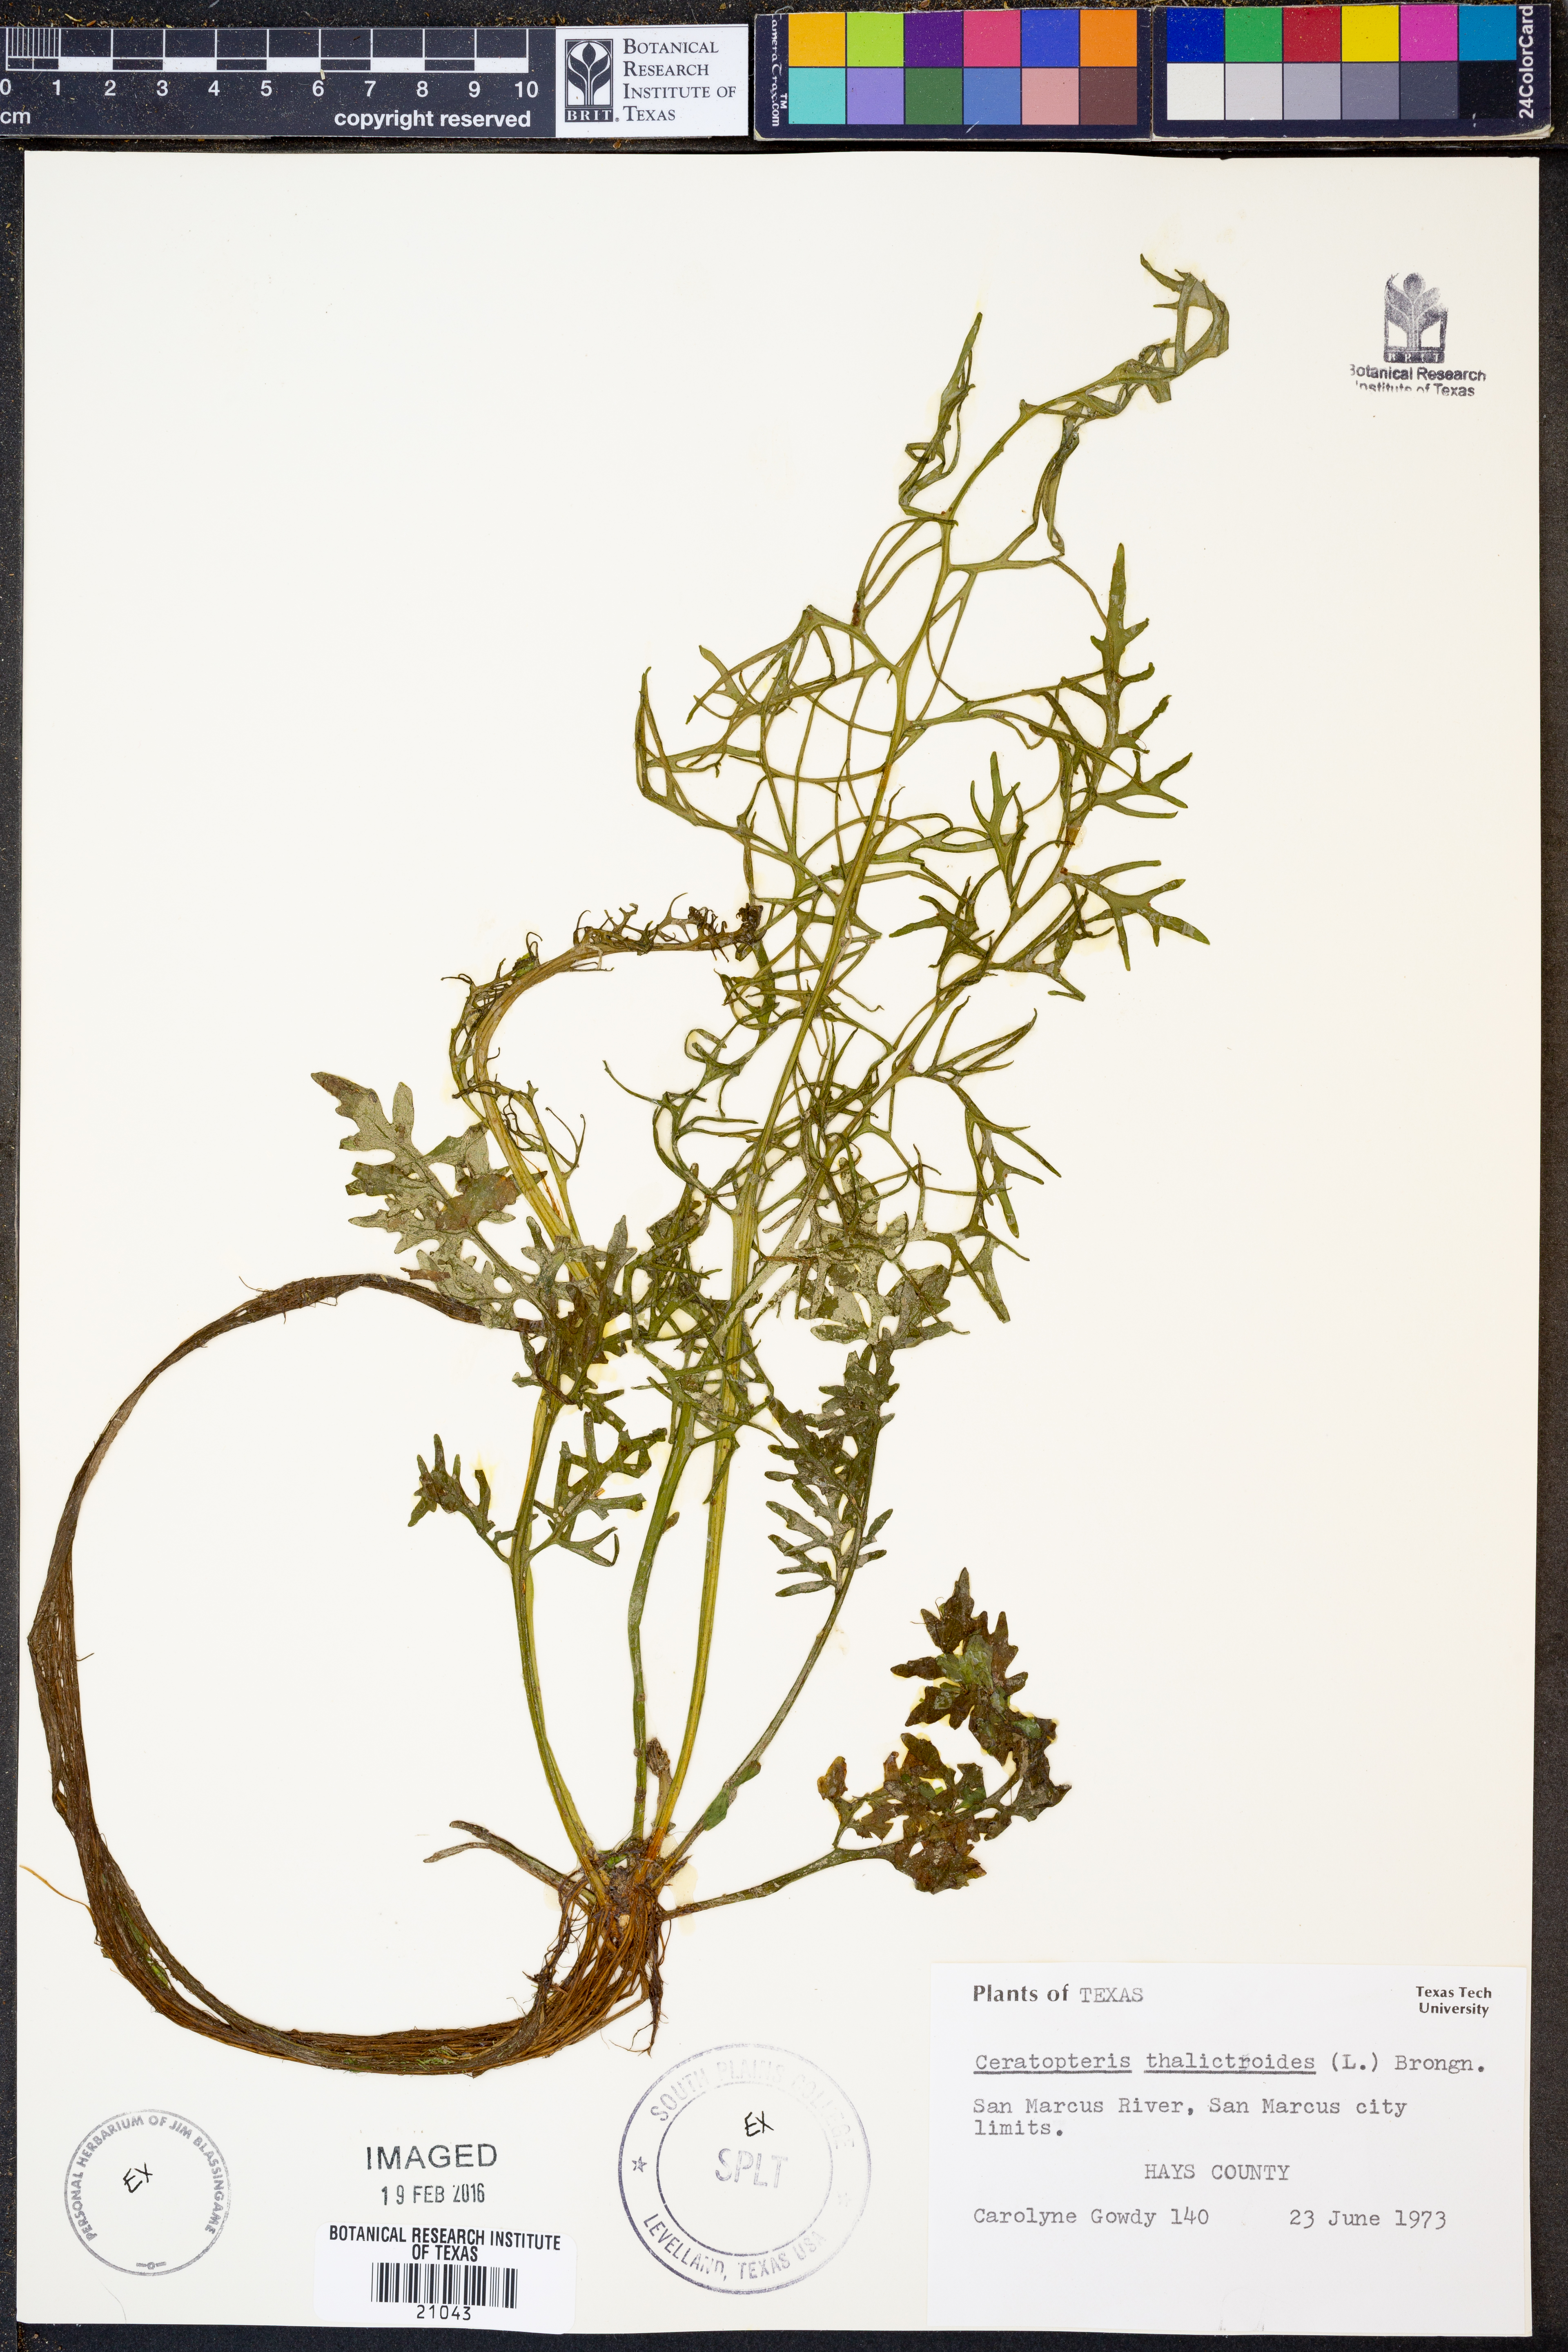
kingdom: Plantae
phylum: Tracheophyta
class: Polypodiopsida
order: Polypodiales
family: Pteridaceae
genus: Ceratopteris
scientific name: Ceratopteris thalictroides
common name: Water fern
